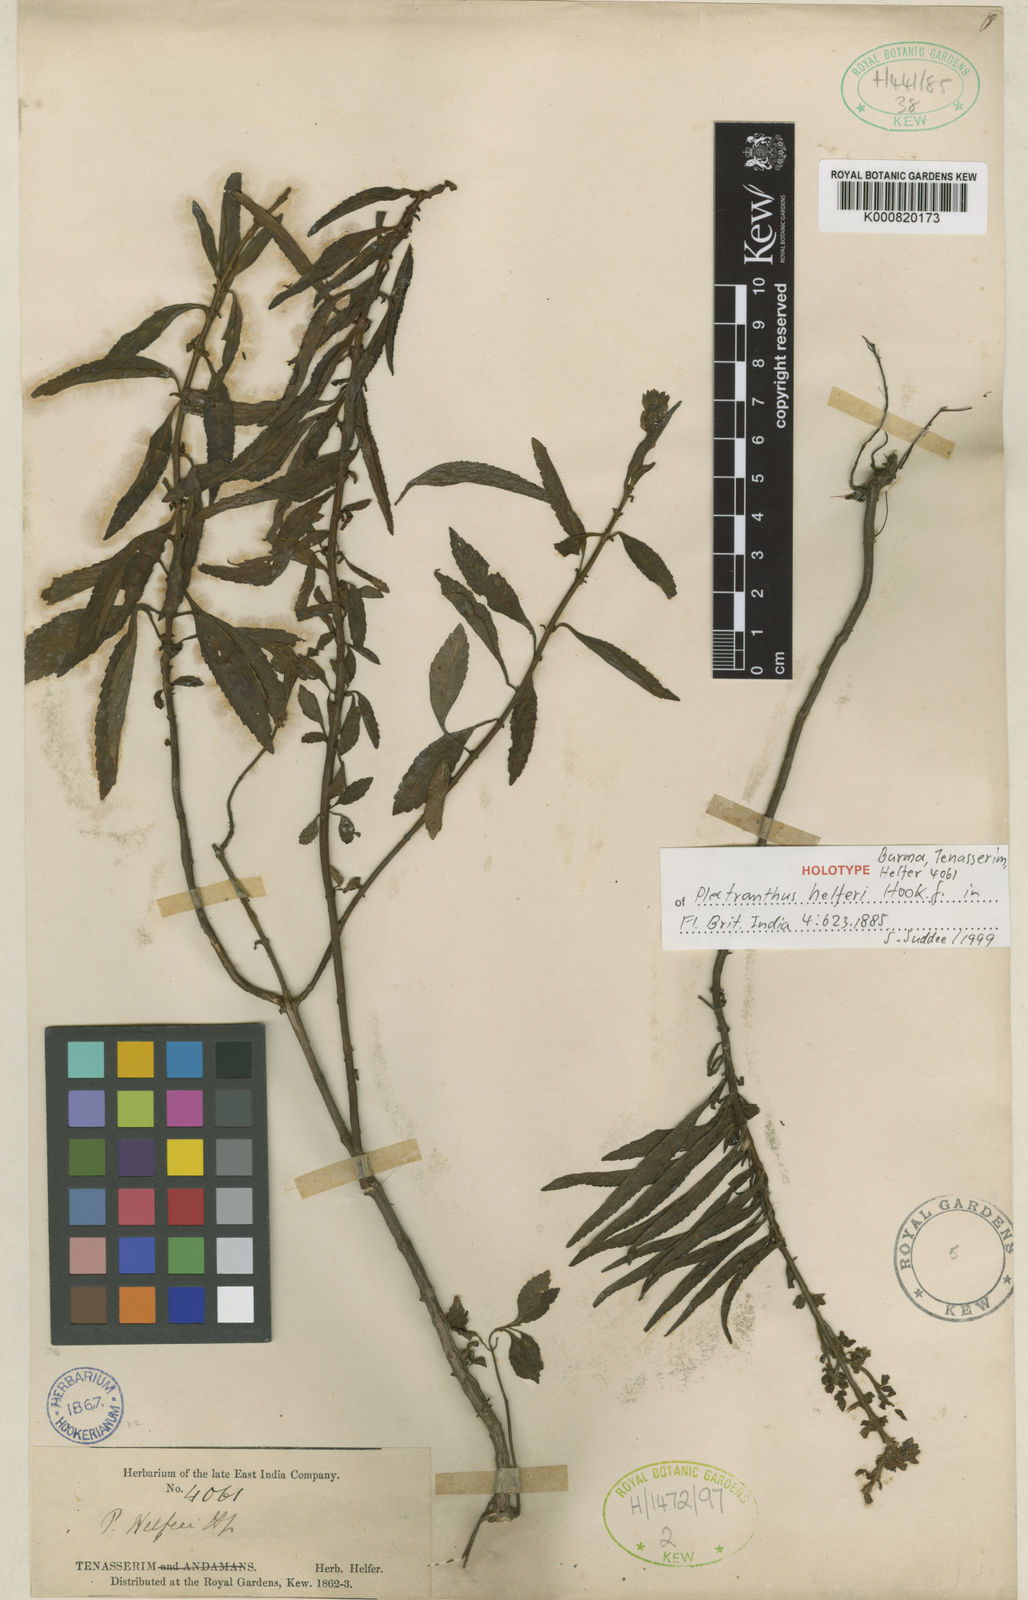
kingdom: Plantae
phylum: Tracheophyta
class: Magnoliopsida
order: Lamiales
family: Lamiaceae
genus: Coleus
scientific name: Coleus helferi
